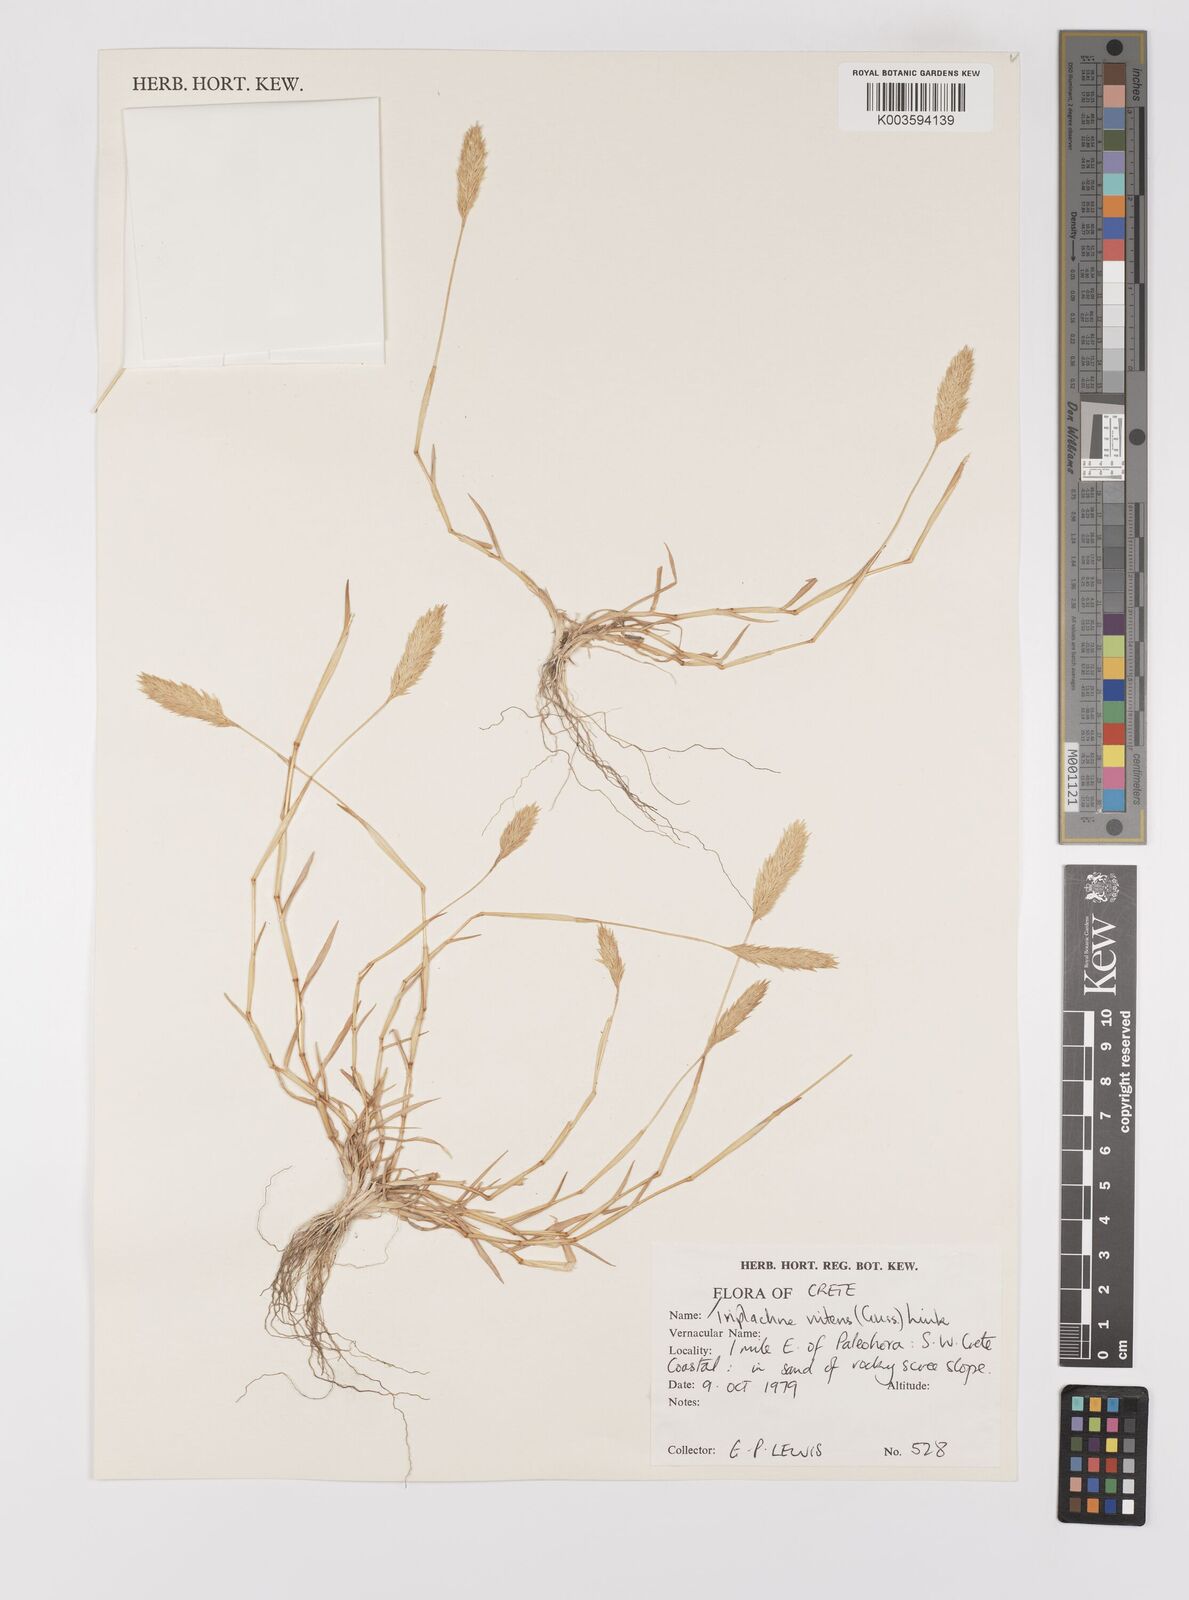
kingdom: Plantae
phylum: Tracheophyta
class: Liliopsida
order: Poales
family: Poaceae
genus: Triplachne
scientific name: Triplachne nitens
